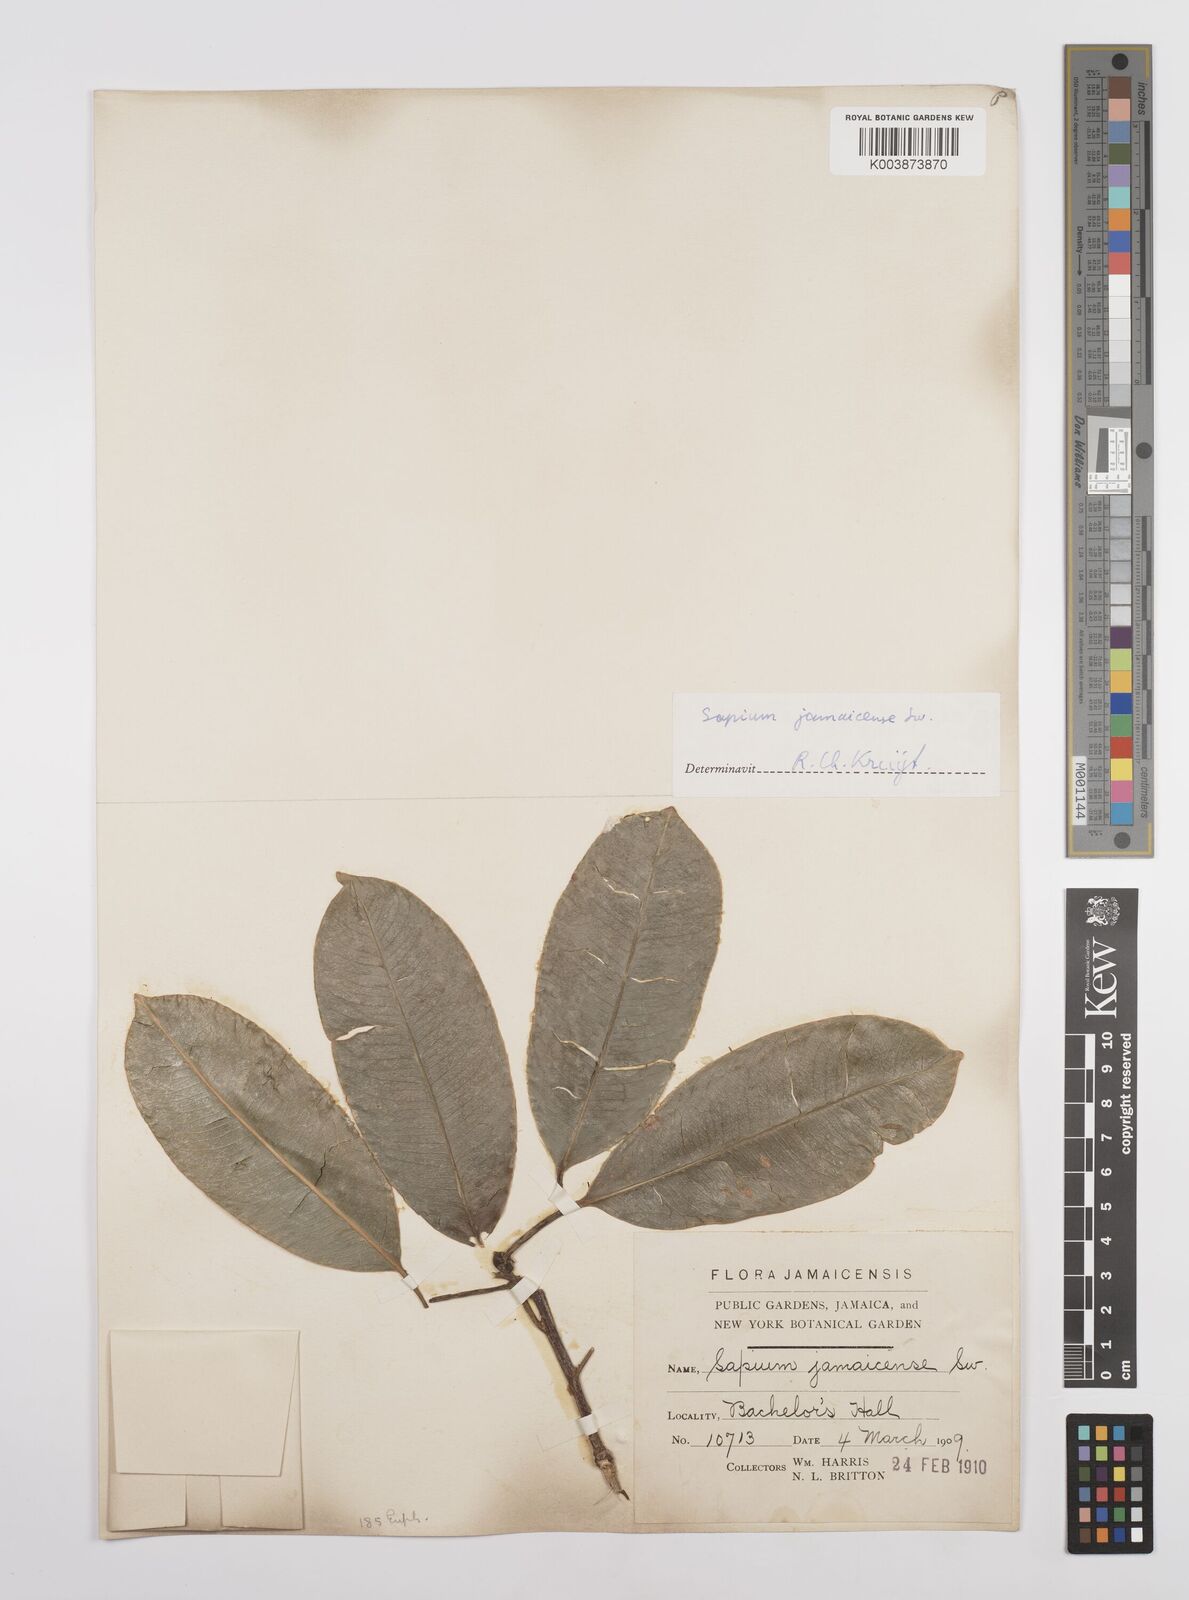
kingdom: Plantae
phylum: Tracheophyta
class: Magnoliopsida
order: Malpighiales
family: Euphorbiaceae
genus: Sapium
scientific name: Sapium glandulosum
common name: Milktree
